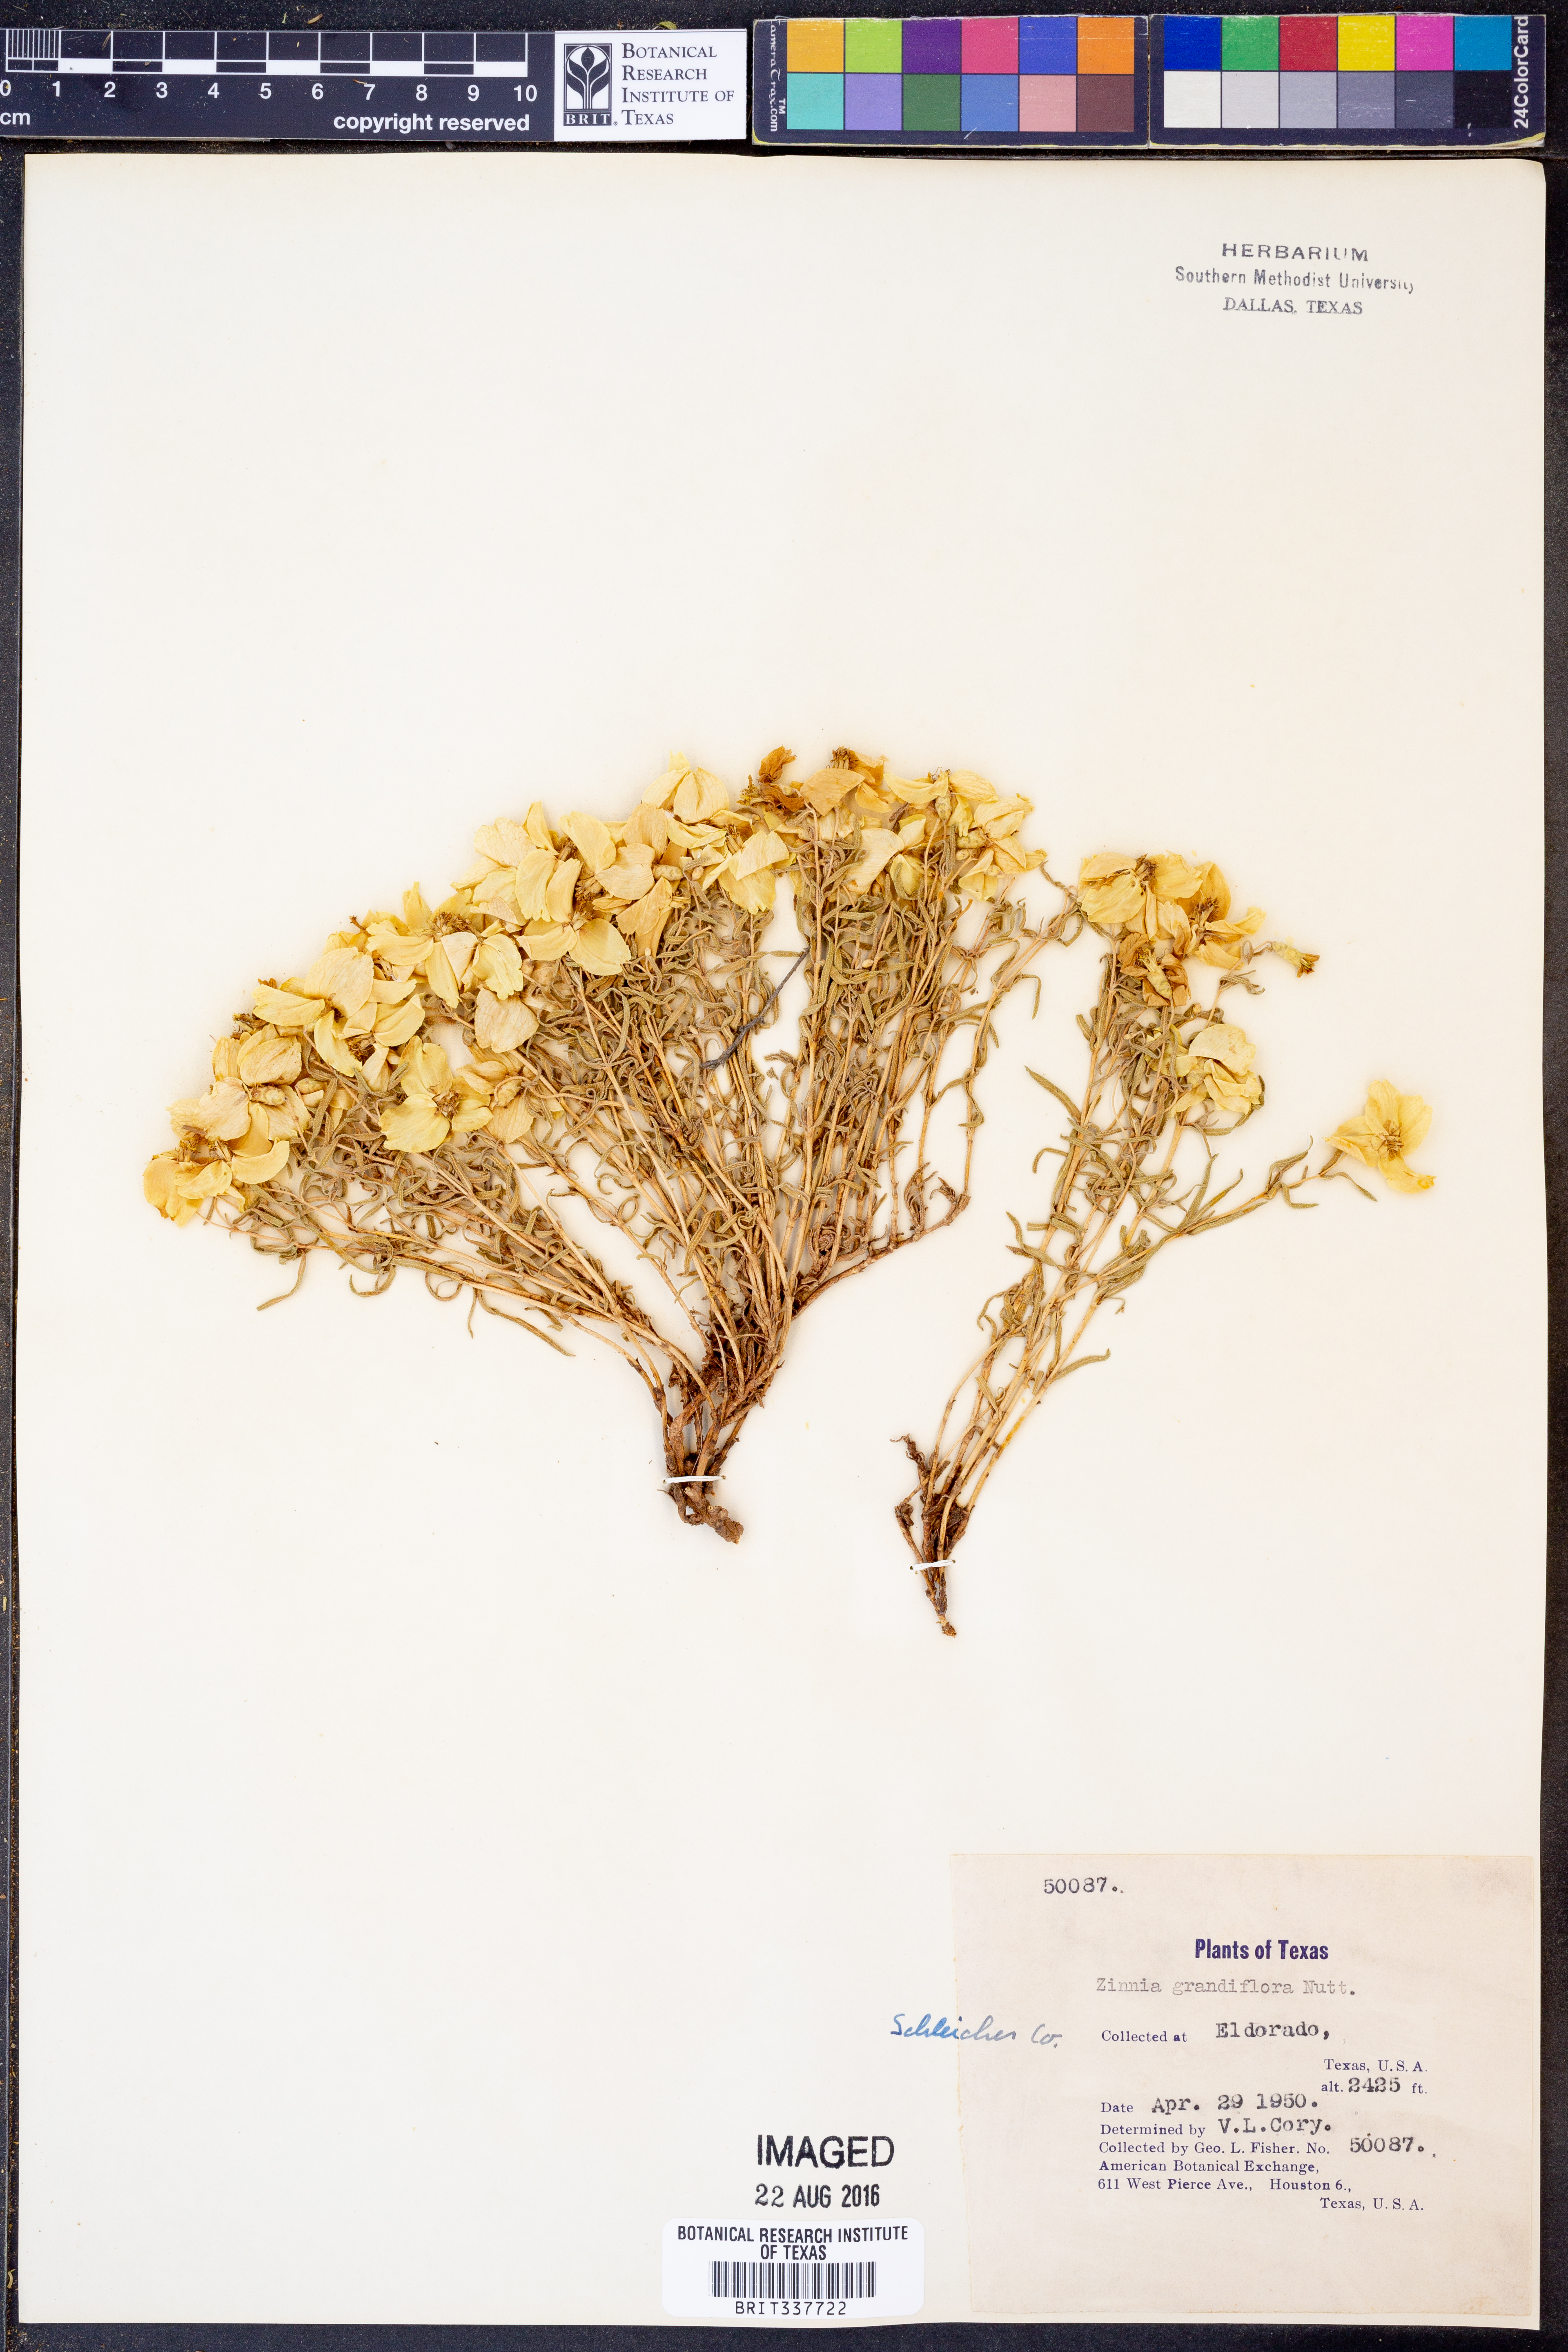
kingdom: Plantae
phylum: Tracheophyta
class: Magnoliopsida
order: Asterales
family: Asteraceae
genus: Zinnia
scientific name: Zinnia grandiflora
